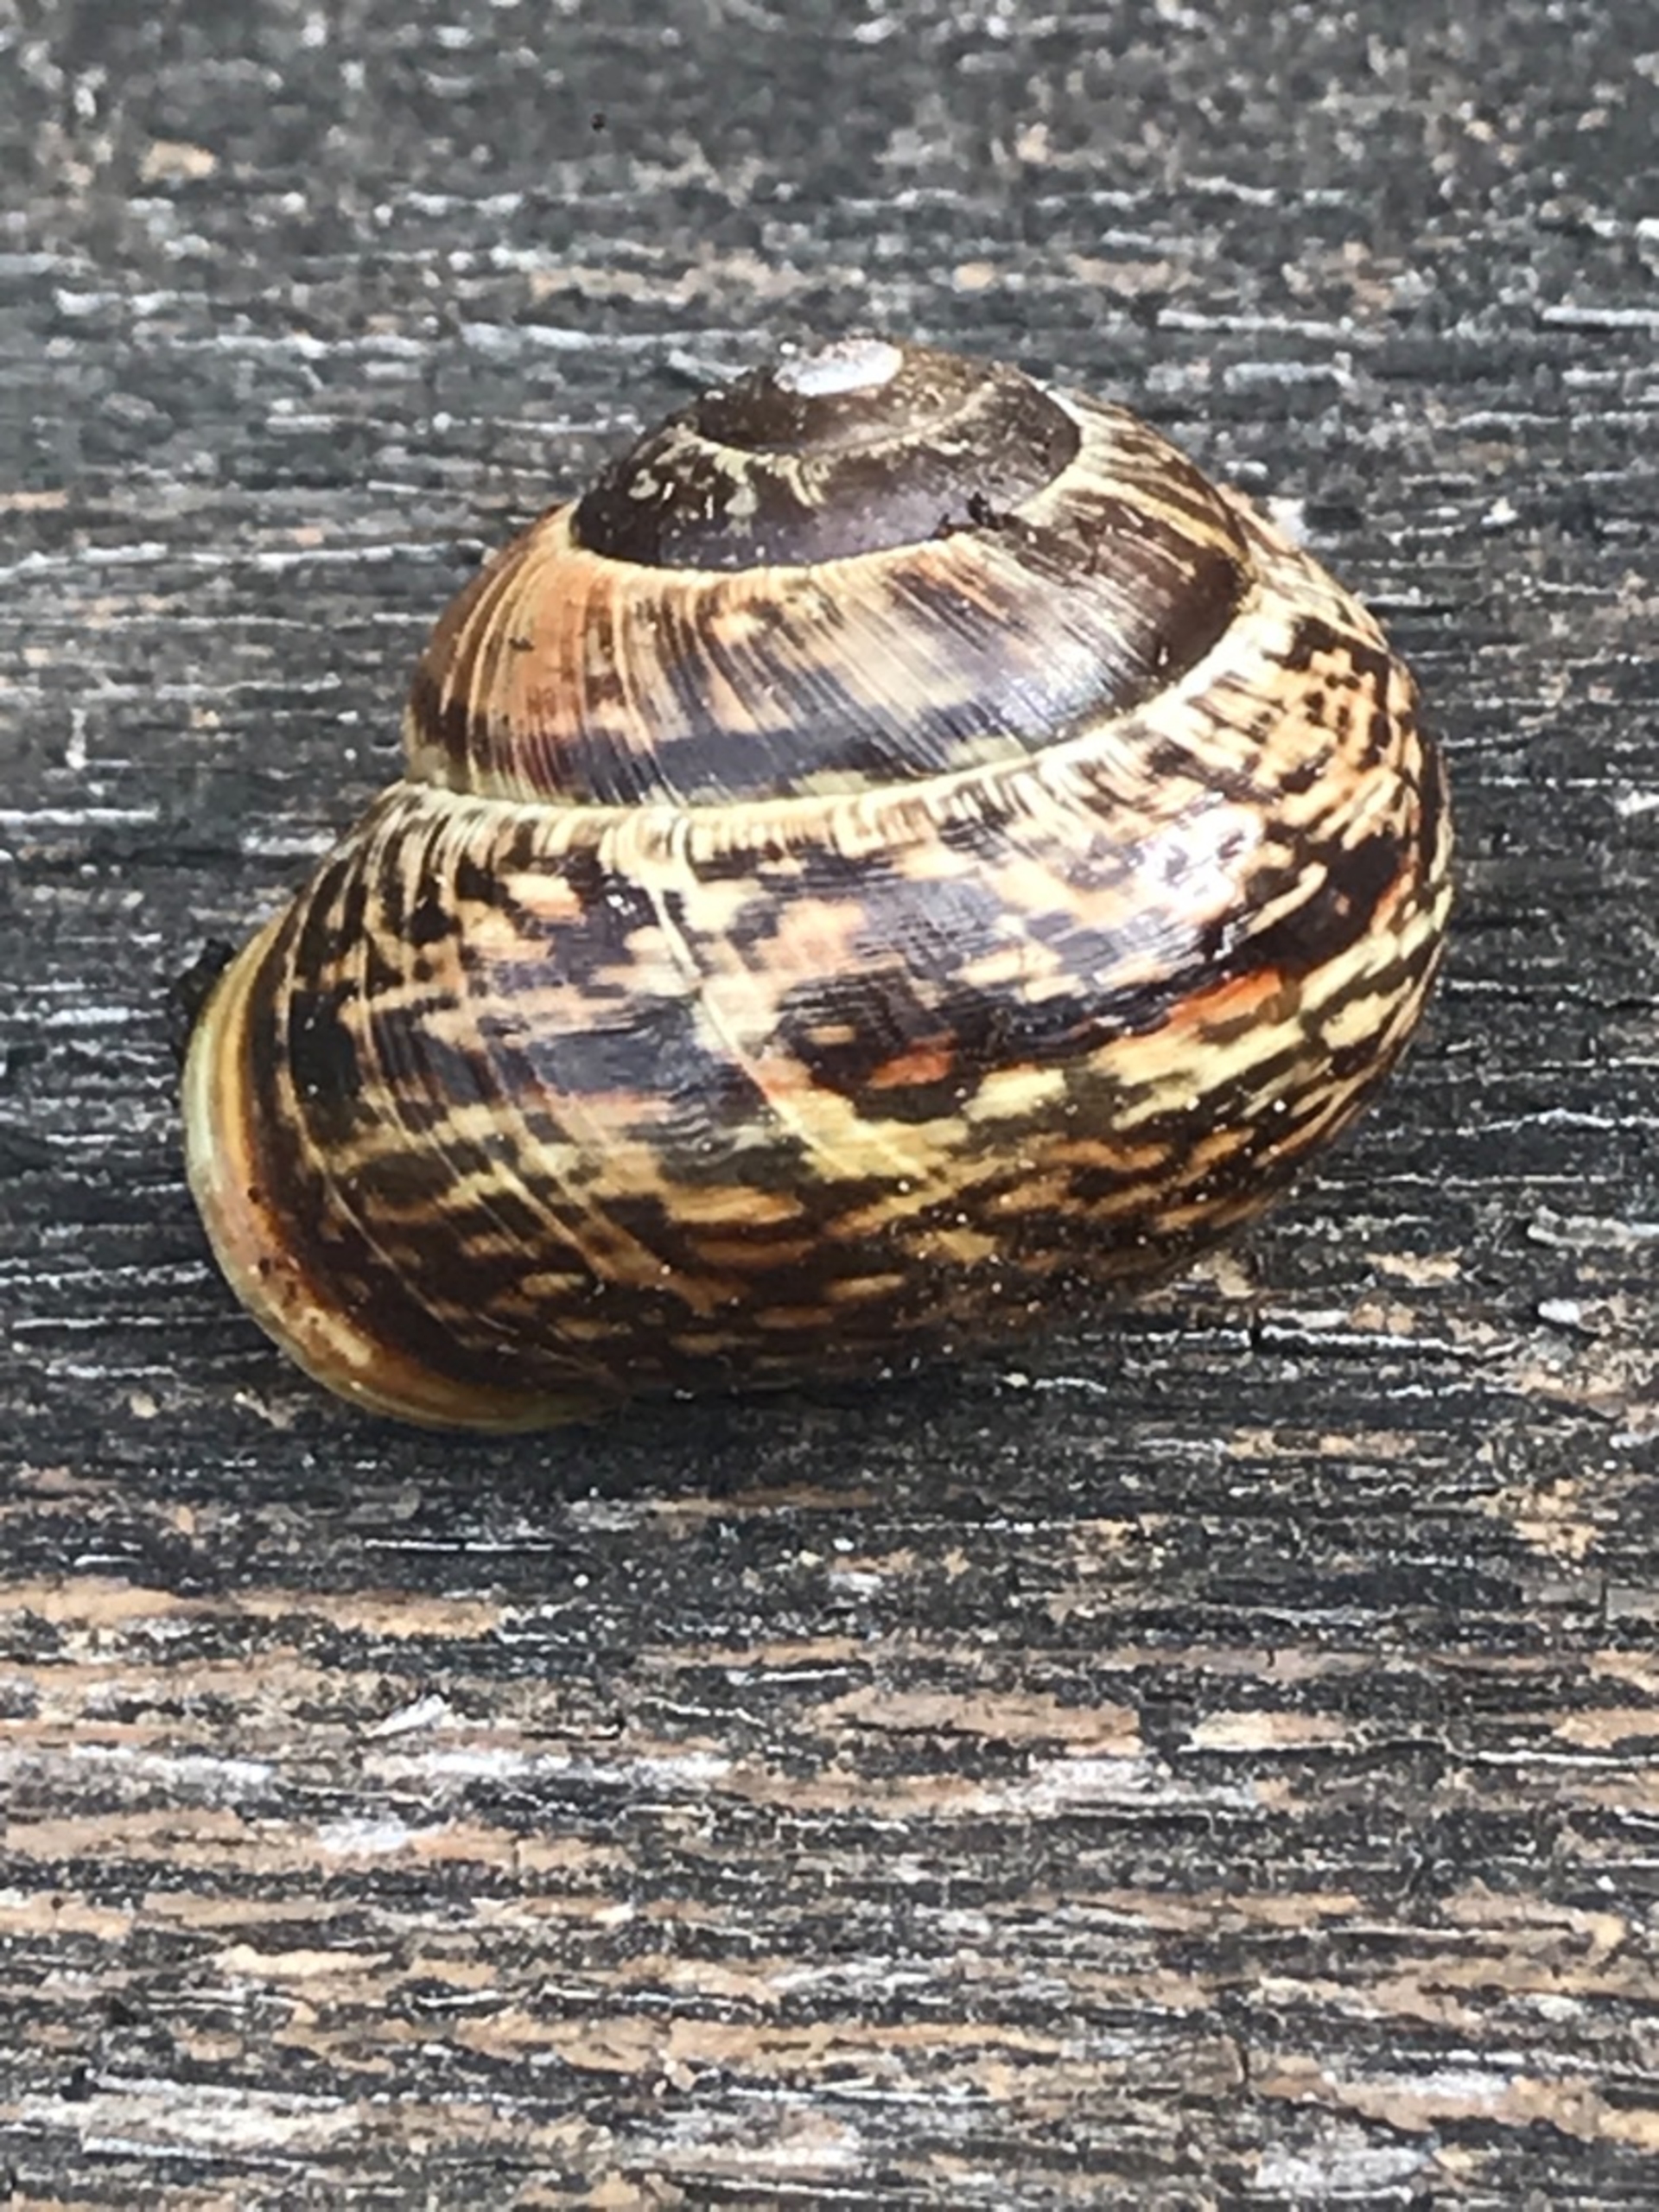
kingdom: Animalia
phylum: Mollusca
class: Gastropoda
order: Stylommatophora
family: Helicidae
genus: Arianta
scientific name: Arianta arbustorum
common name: Kratsnegl
